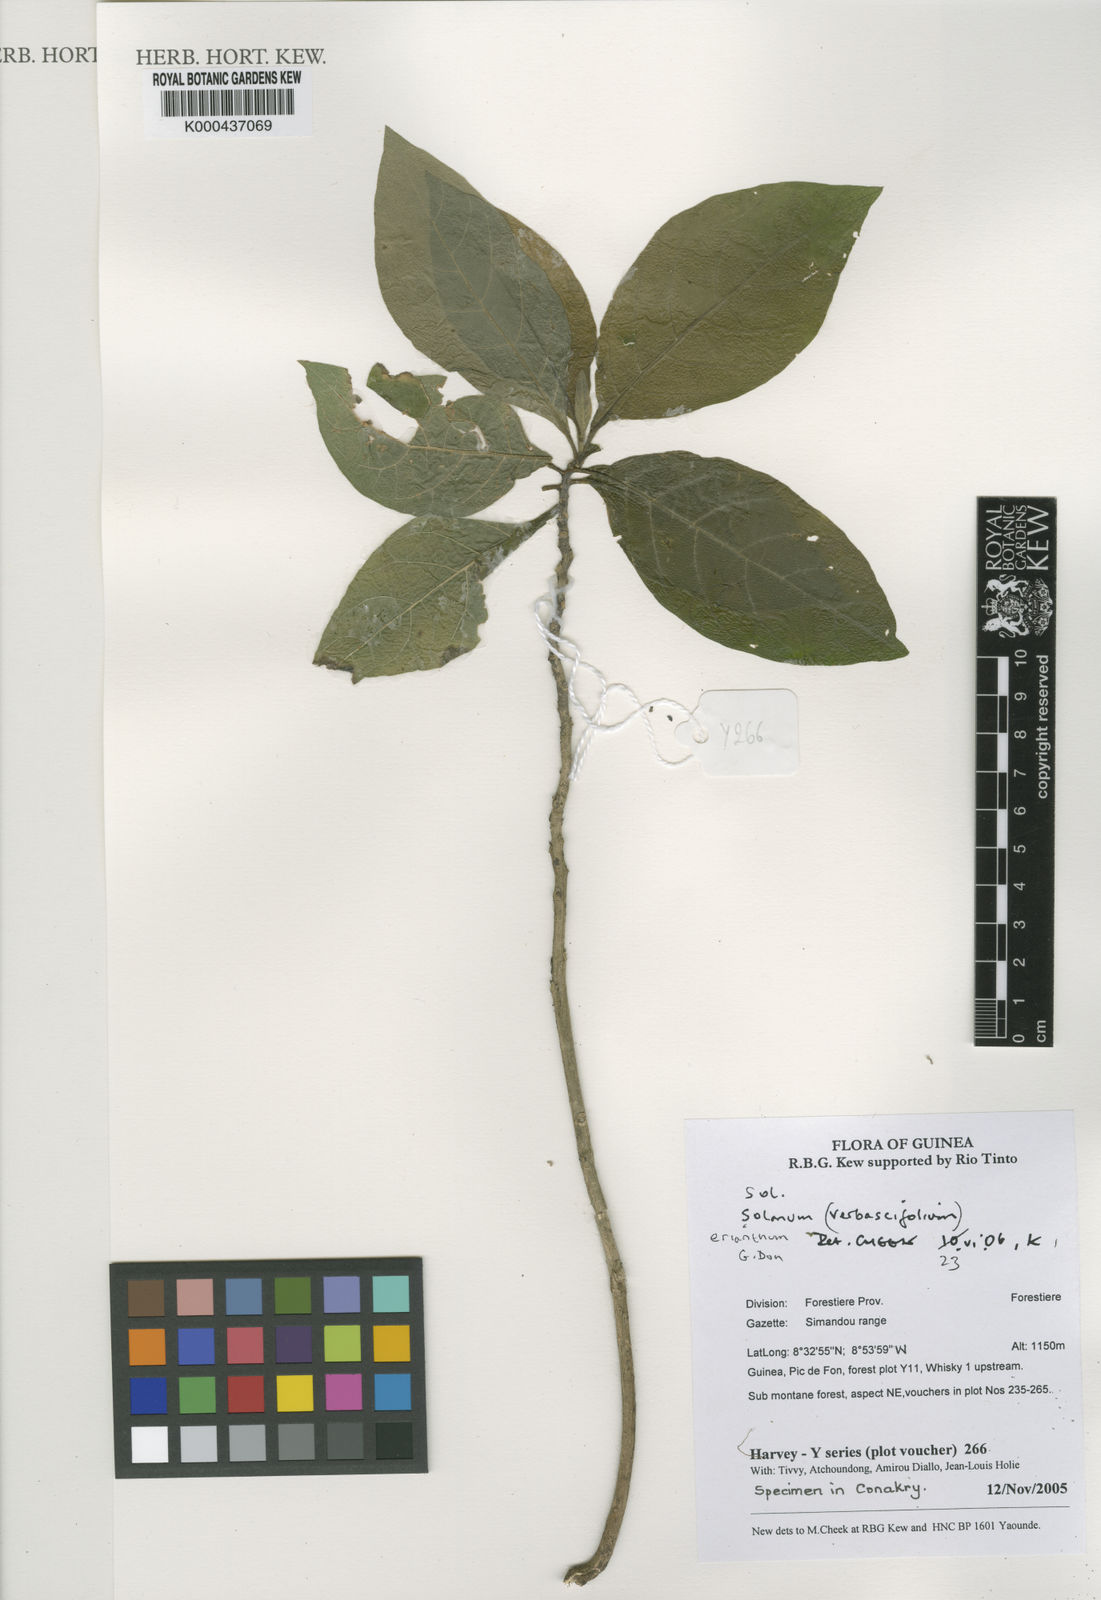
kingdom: Plantae
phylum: Tracheophyta
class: Magnoliopsida
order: Solanales
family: Solanaceae
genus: Solanum
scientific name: Solanum erianthum
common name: Tobacco-tree
